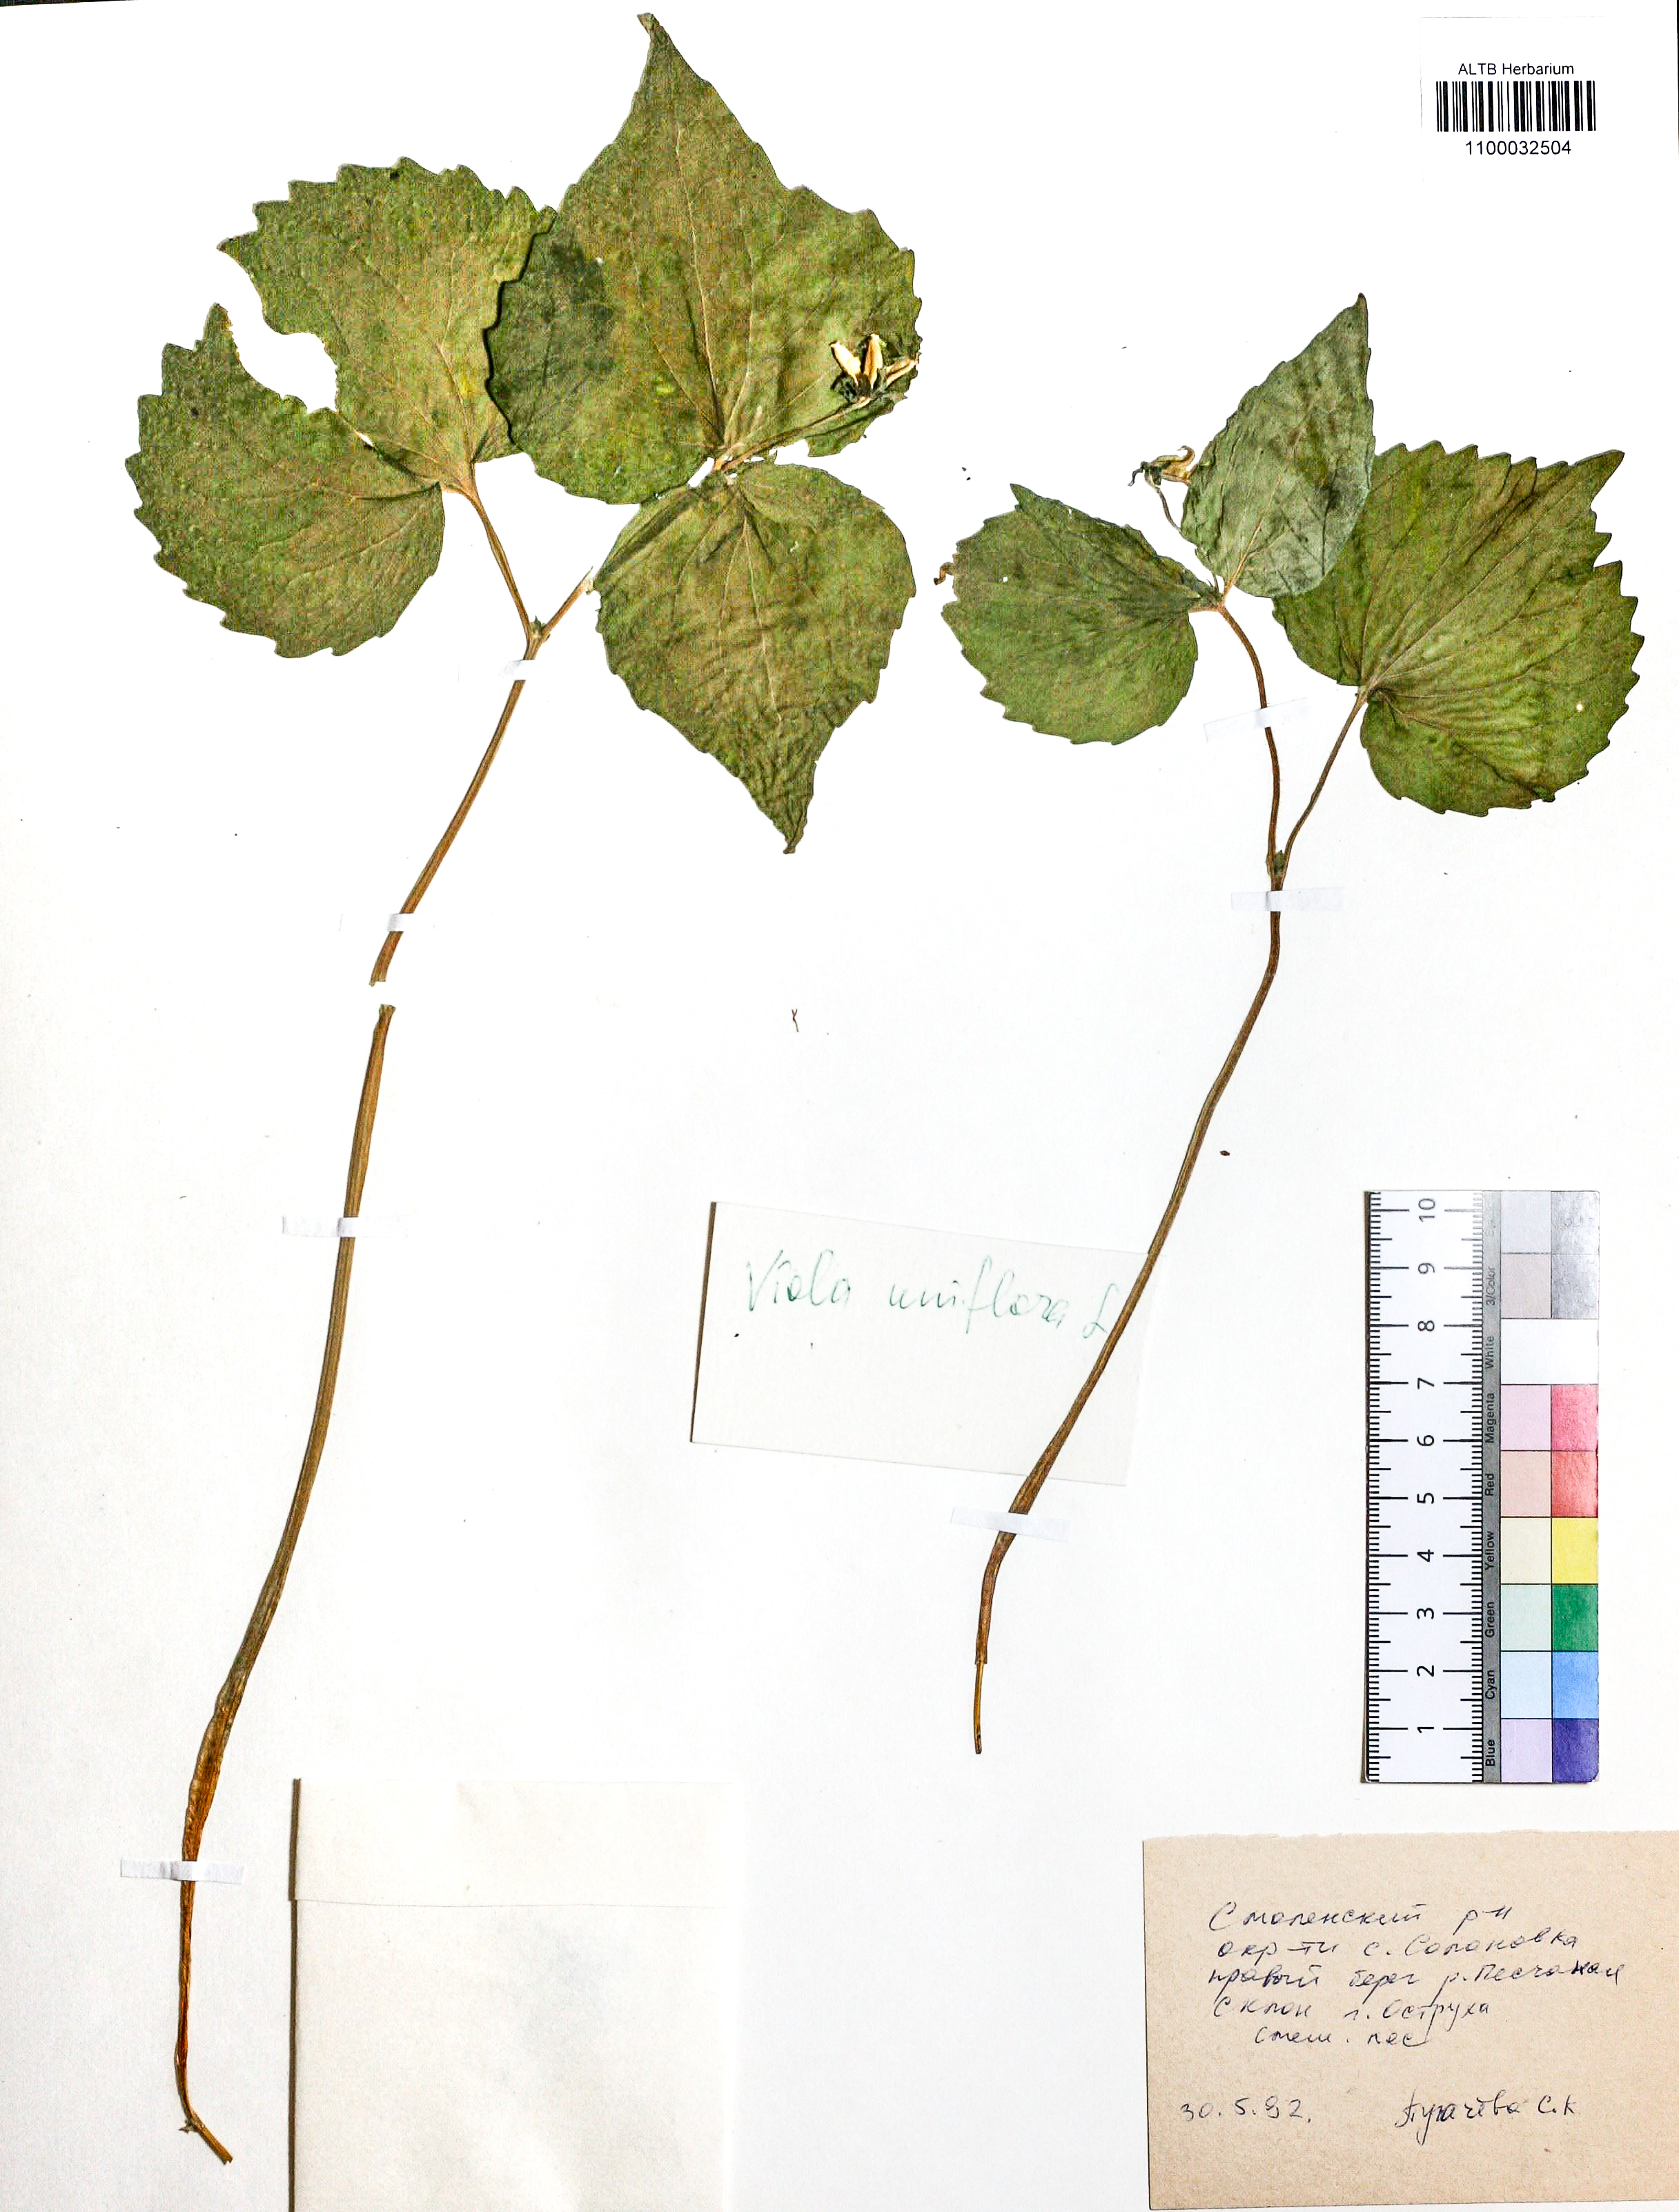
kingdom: Plantae
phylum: Tracheophyta
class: Magnoliopsida
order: Malpighiales
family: Violaceae
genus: Viola
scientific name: Viola uniflora
